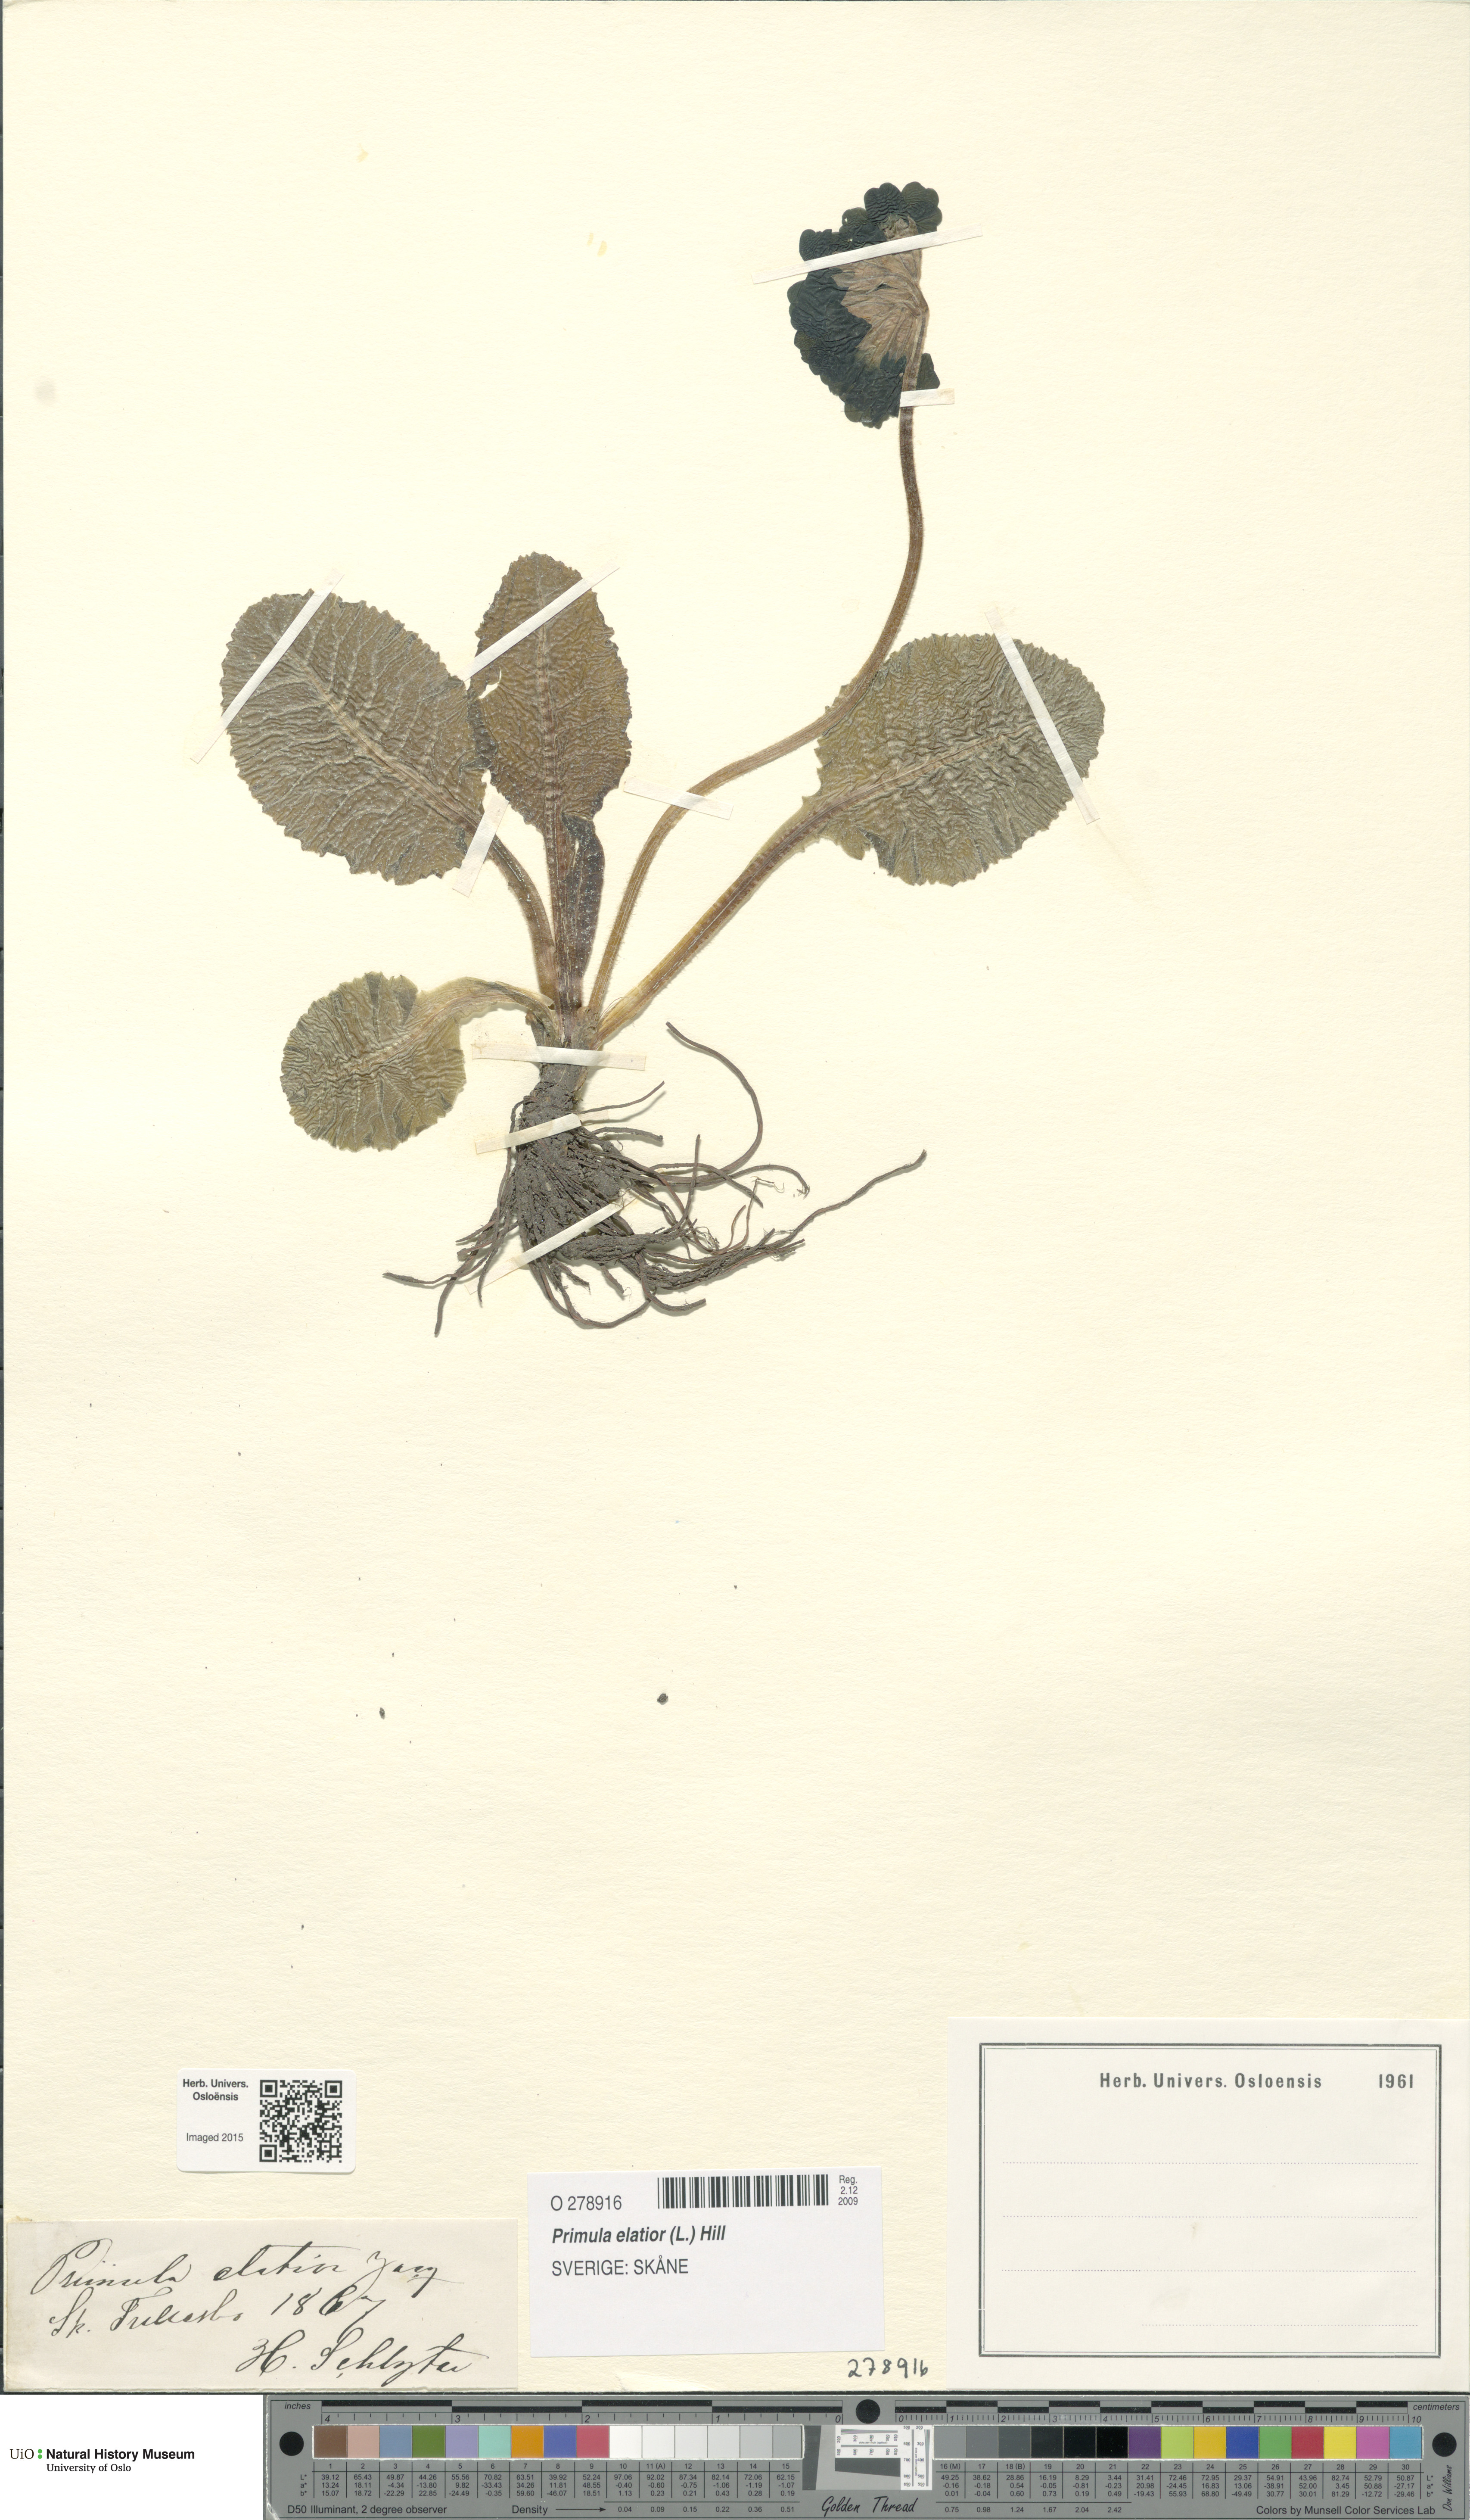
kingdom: Plantae
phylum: Tracheophyta
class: Magnoliopsida
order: Ericales
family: Primulaceae
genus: Primula
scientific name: Primula elatior
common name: Oxlip
